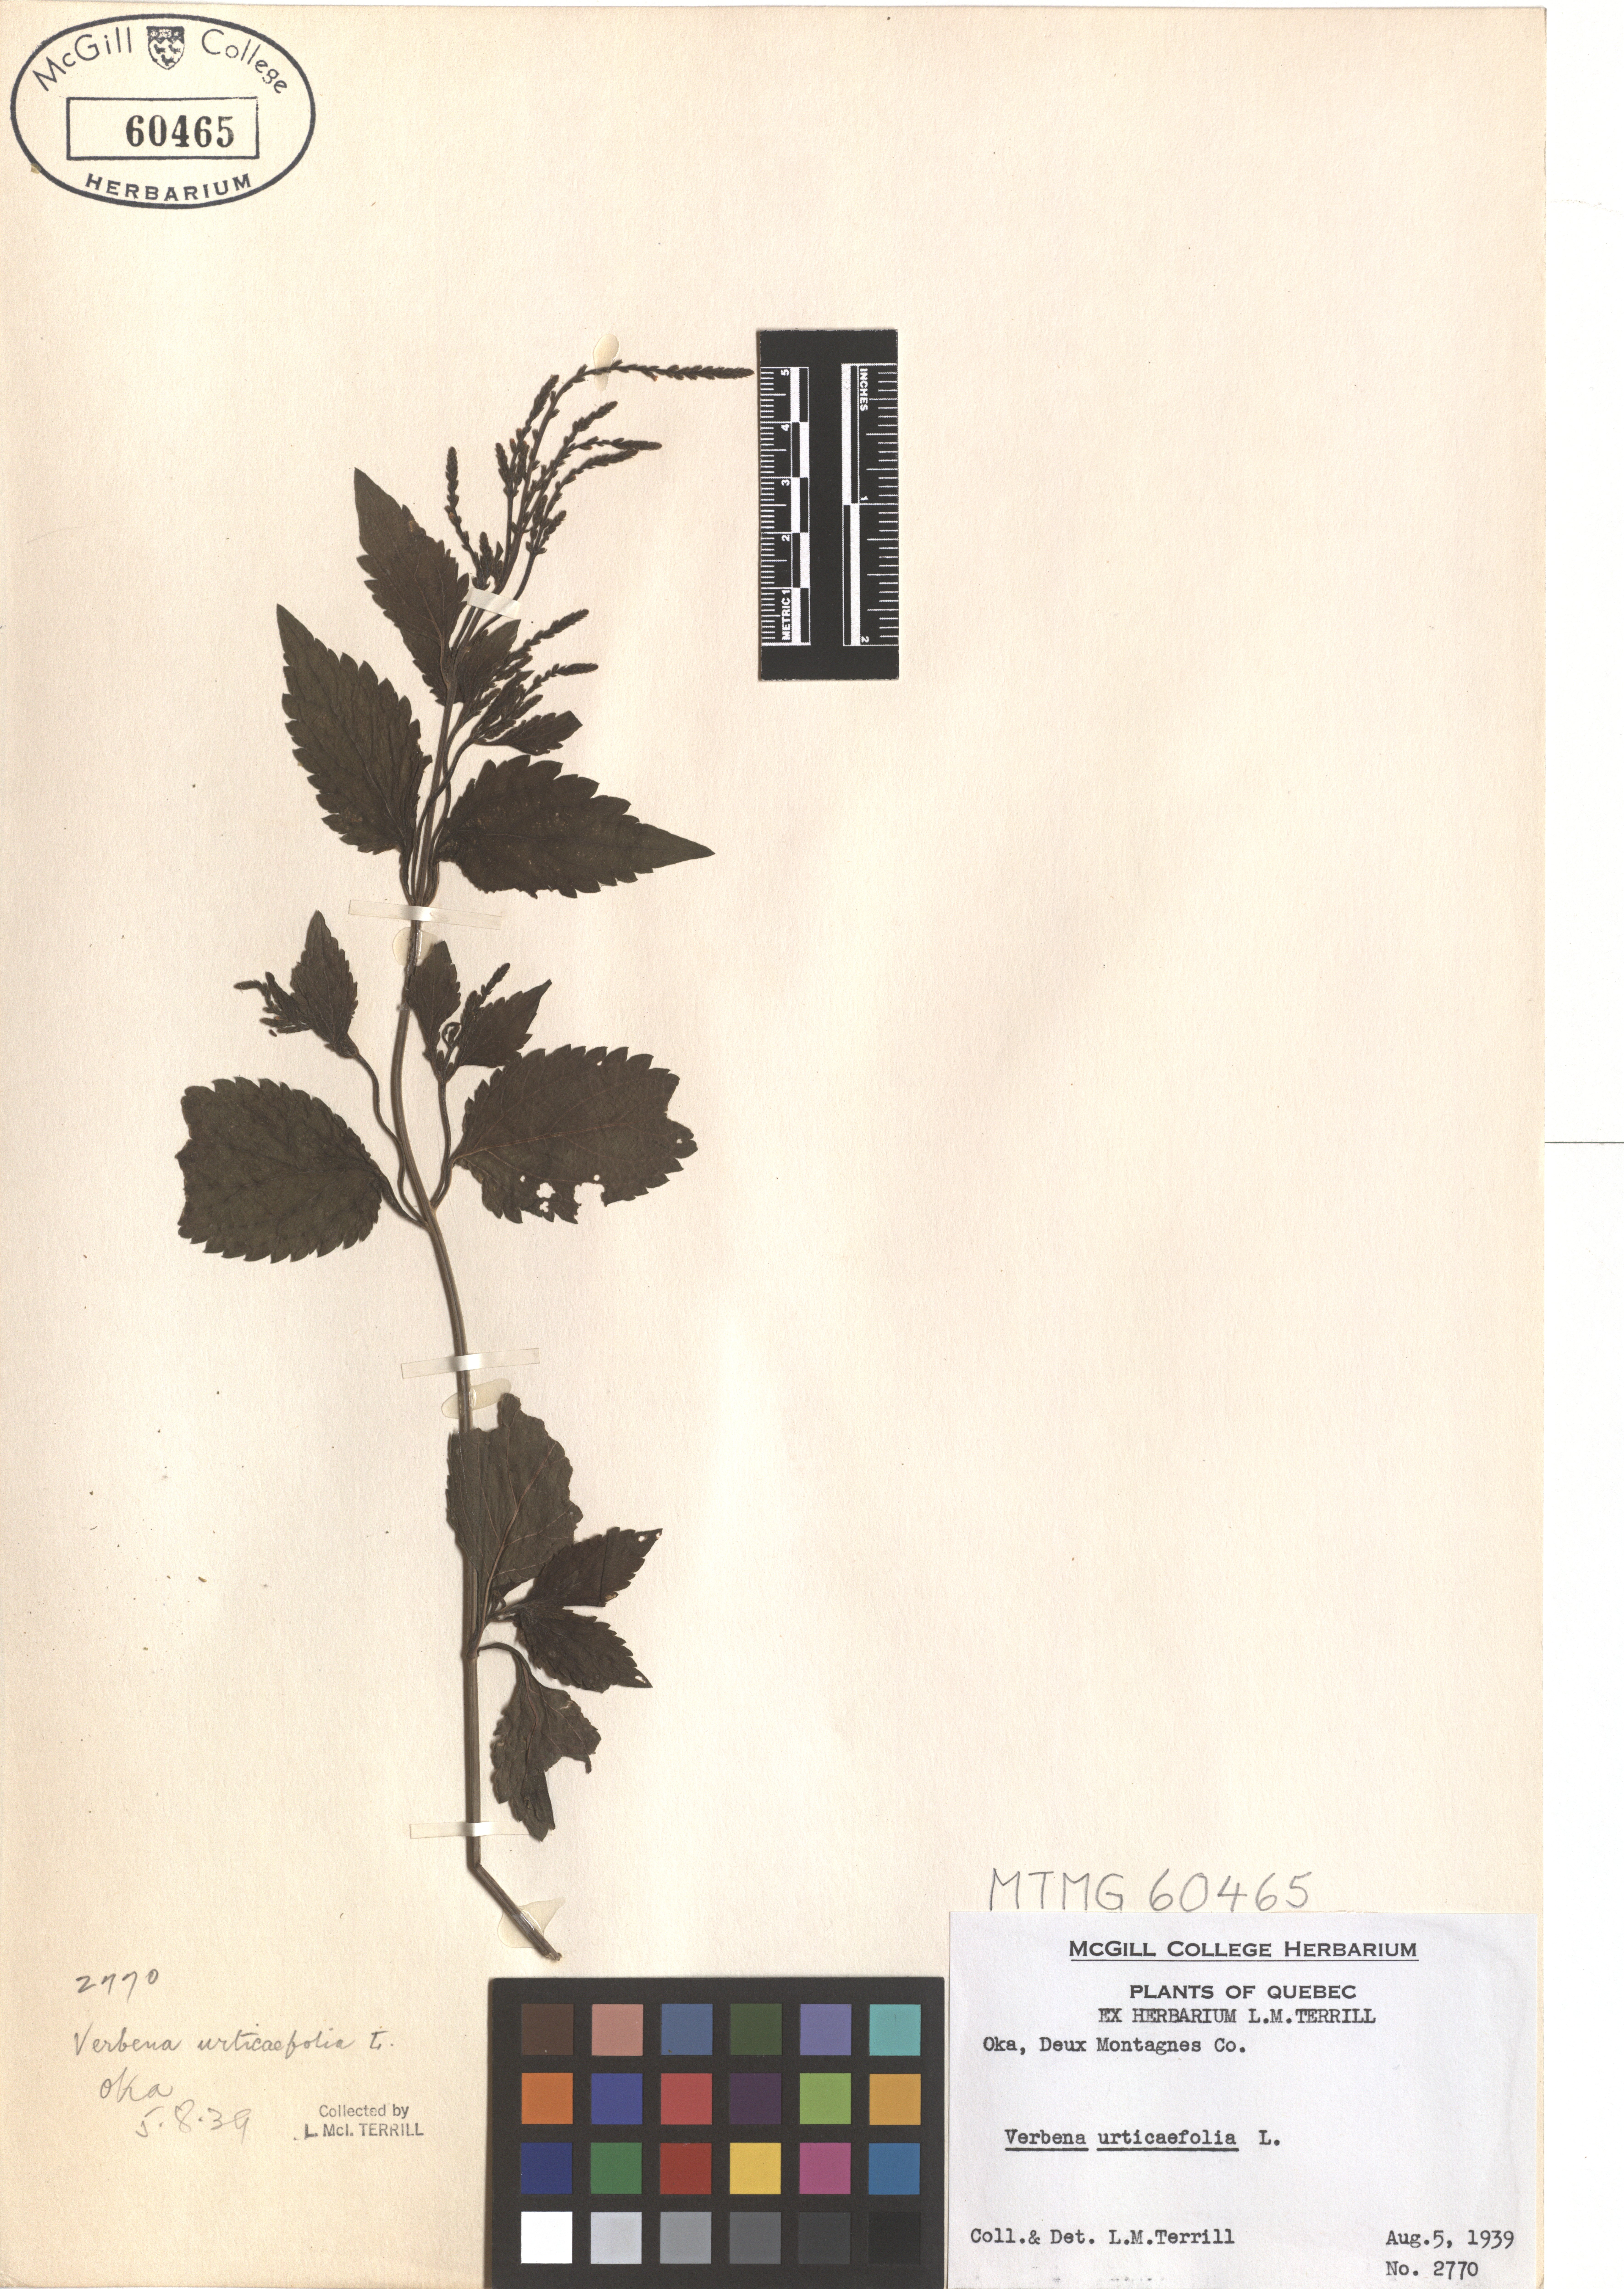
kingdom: Plantae
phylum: Tracheophyta
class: Magnoliopsida
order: Lamiales
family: Verbenaceae
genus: Verbena
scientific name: Verbena urticifolia
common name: Nettle-leaved vervain
